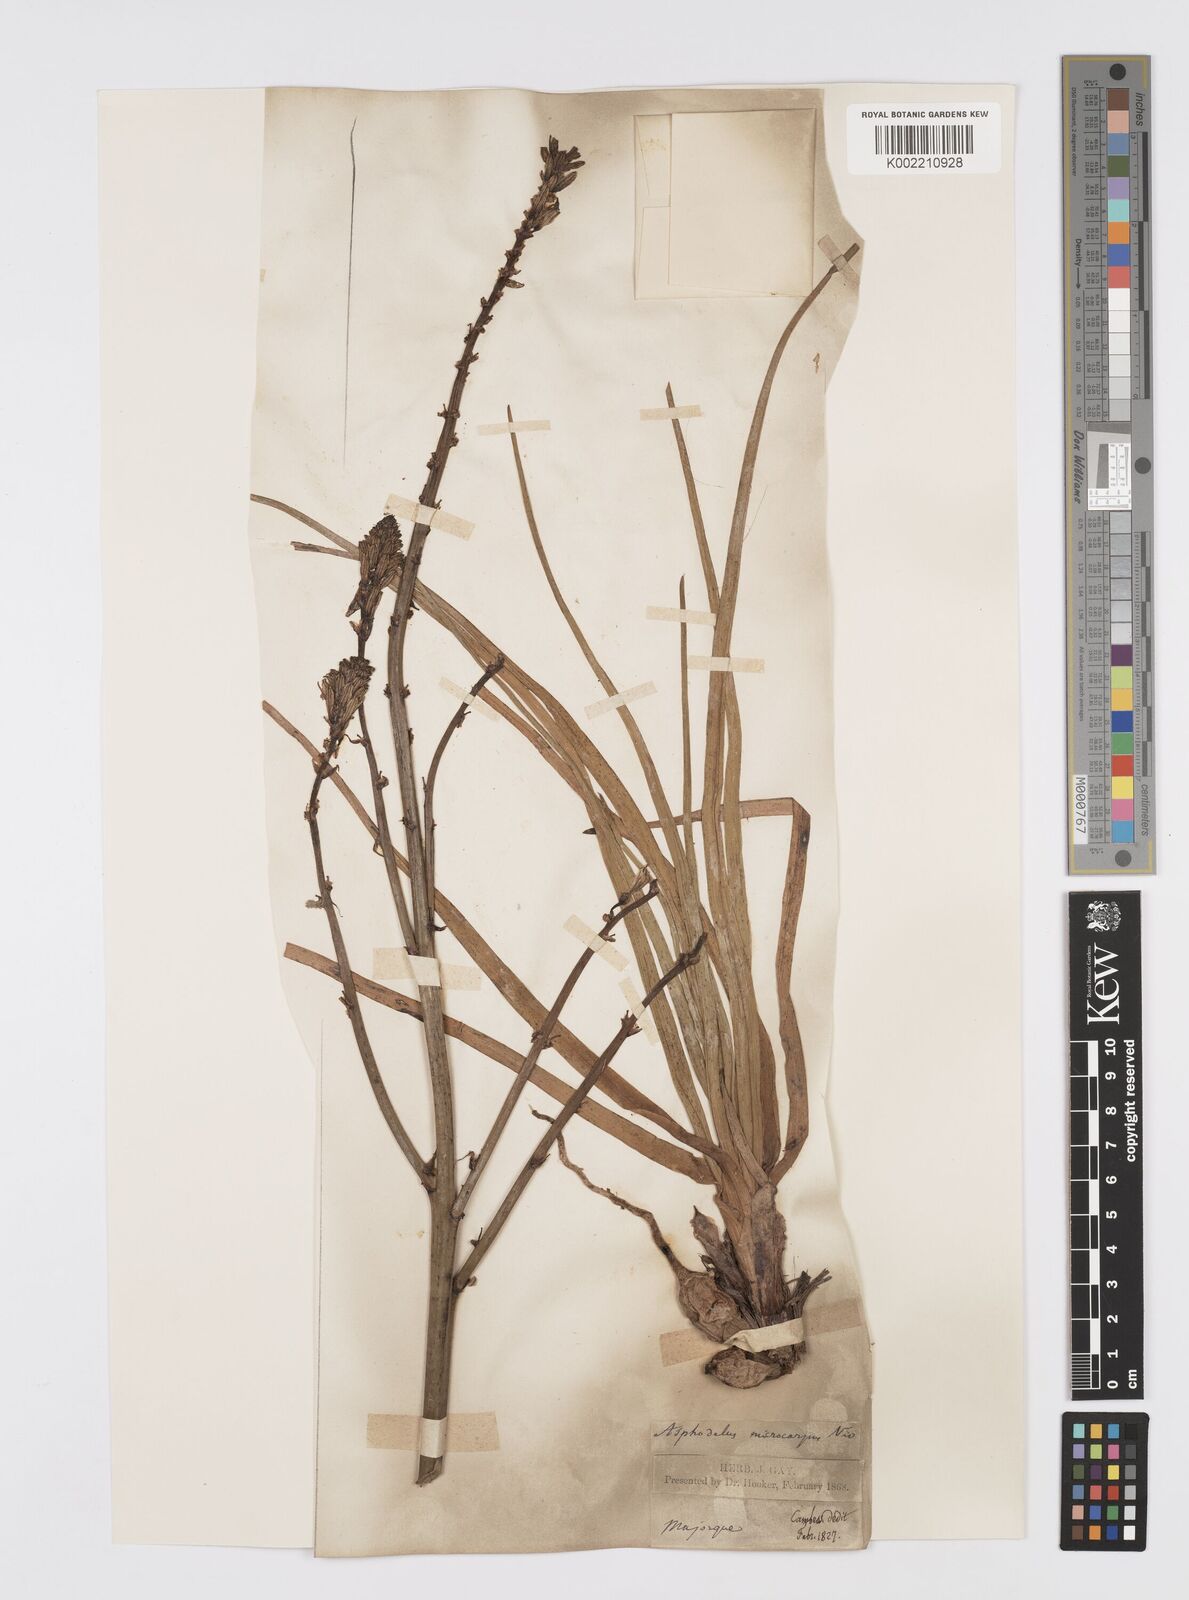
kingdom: Plantae
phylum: Tracheophyta
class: Liliopsida
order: Asparagales
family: Asphodelaceae
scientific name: Asphodelaceae
